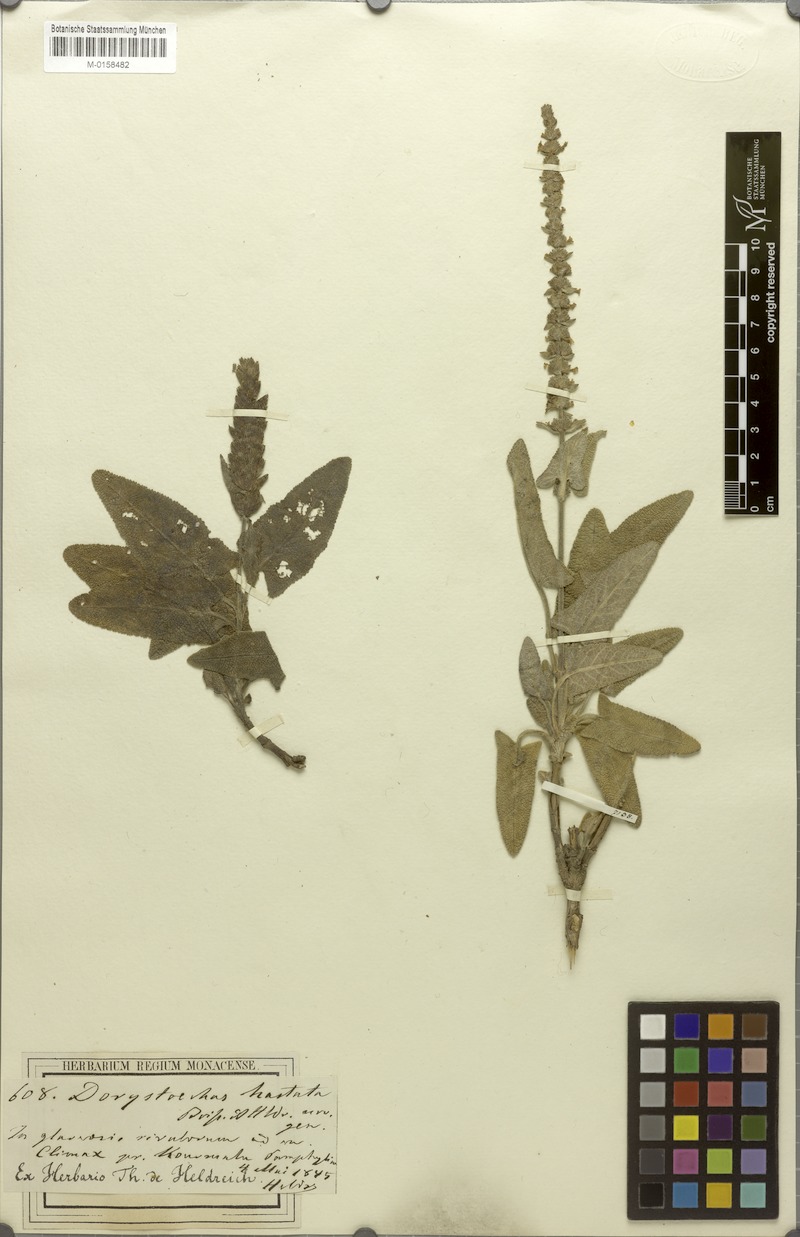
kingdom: Plantae
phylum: Tracheophyta
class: Magnoliopsida
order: Lamiales
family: Lamiaceae
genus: Salvia
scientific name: Salvia dorystaechas
